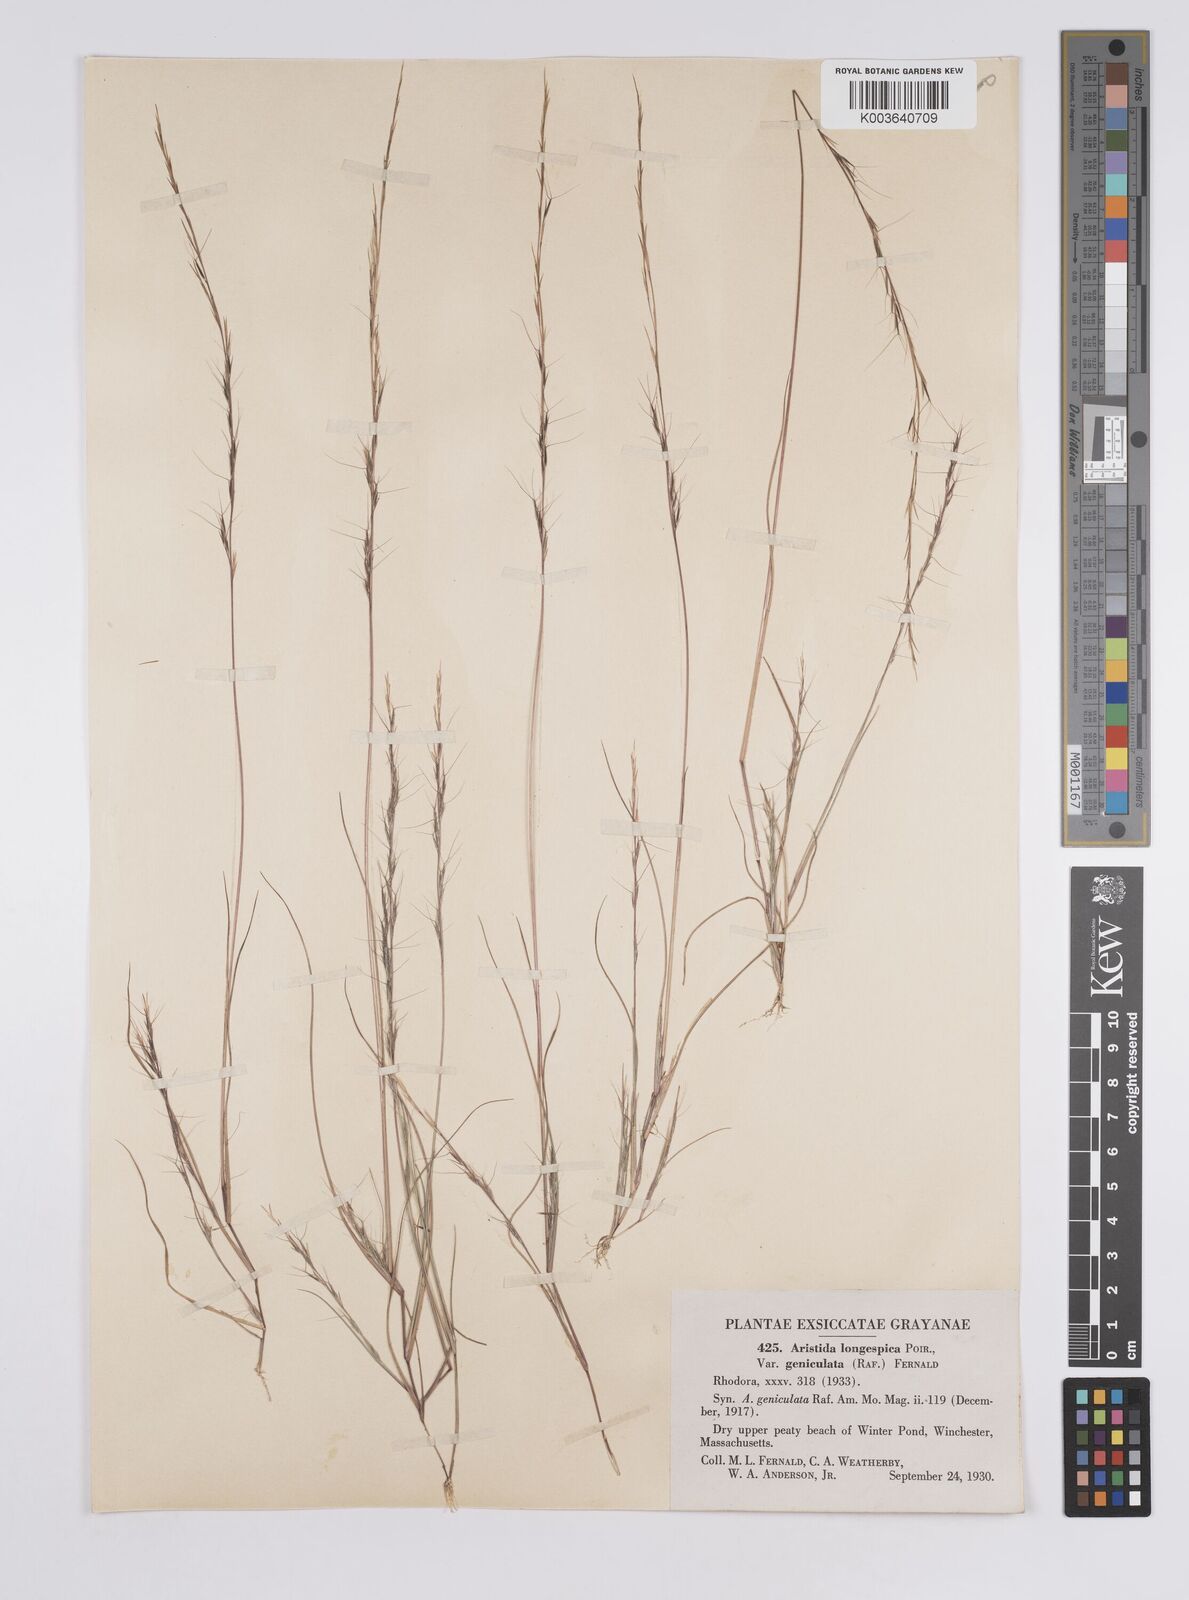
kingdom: Plantae
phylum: Tracheophyta
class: Liliopsida
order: Poales
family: Poaceae
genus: Aristida
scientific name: Aristida longespica
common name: Long-spiked triple-awned grass
